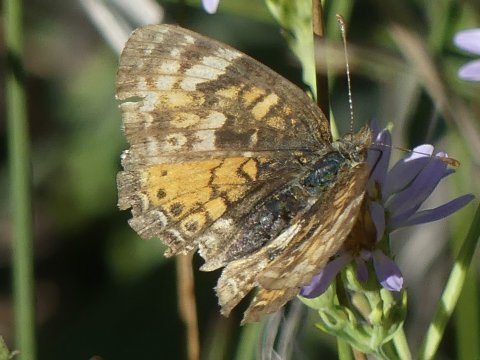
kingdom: Animalia
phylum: Arthropoda
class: Insecta
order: Lepidoptera
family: Nymphalidae
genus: Phyciodes
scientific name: Phyciodes
